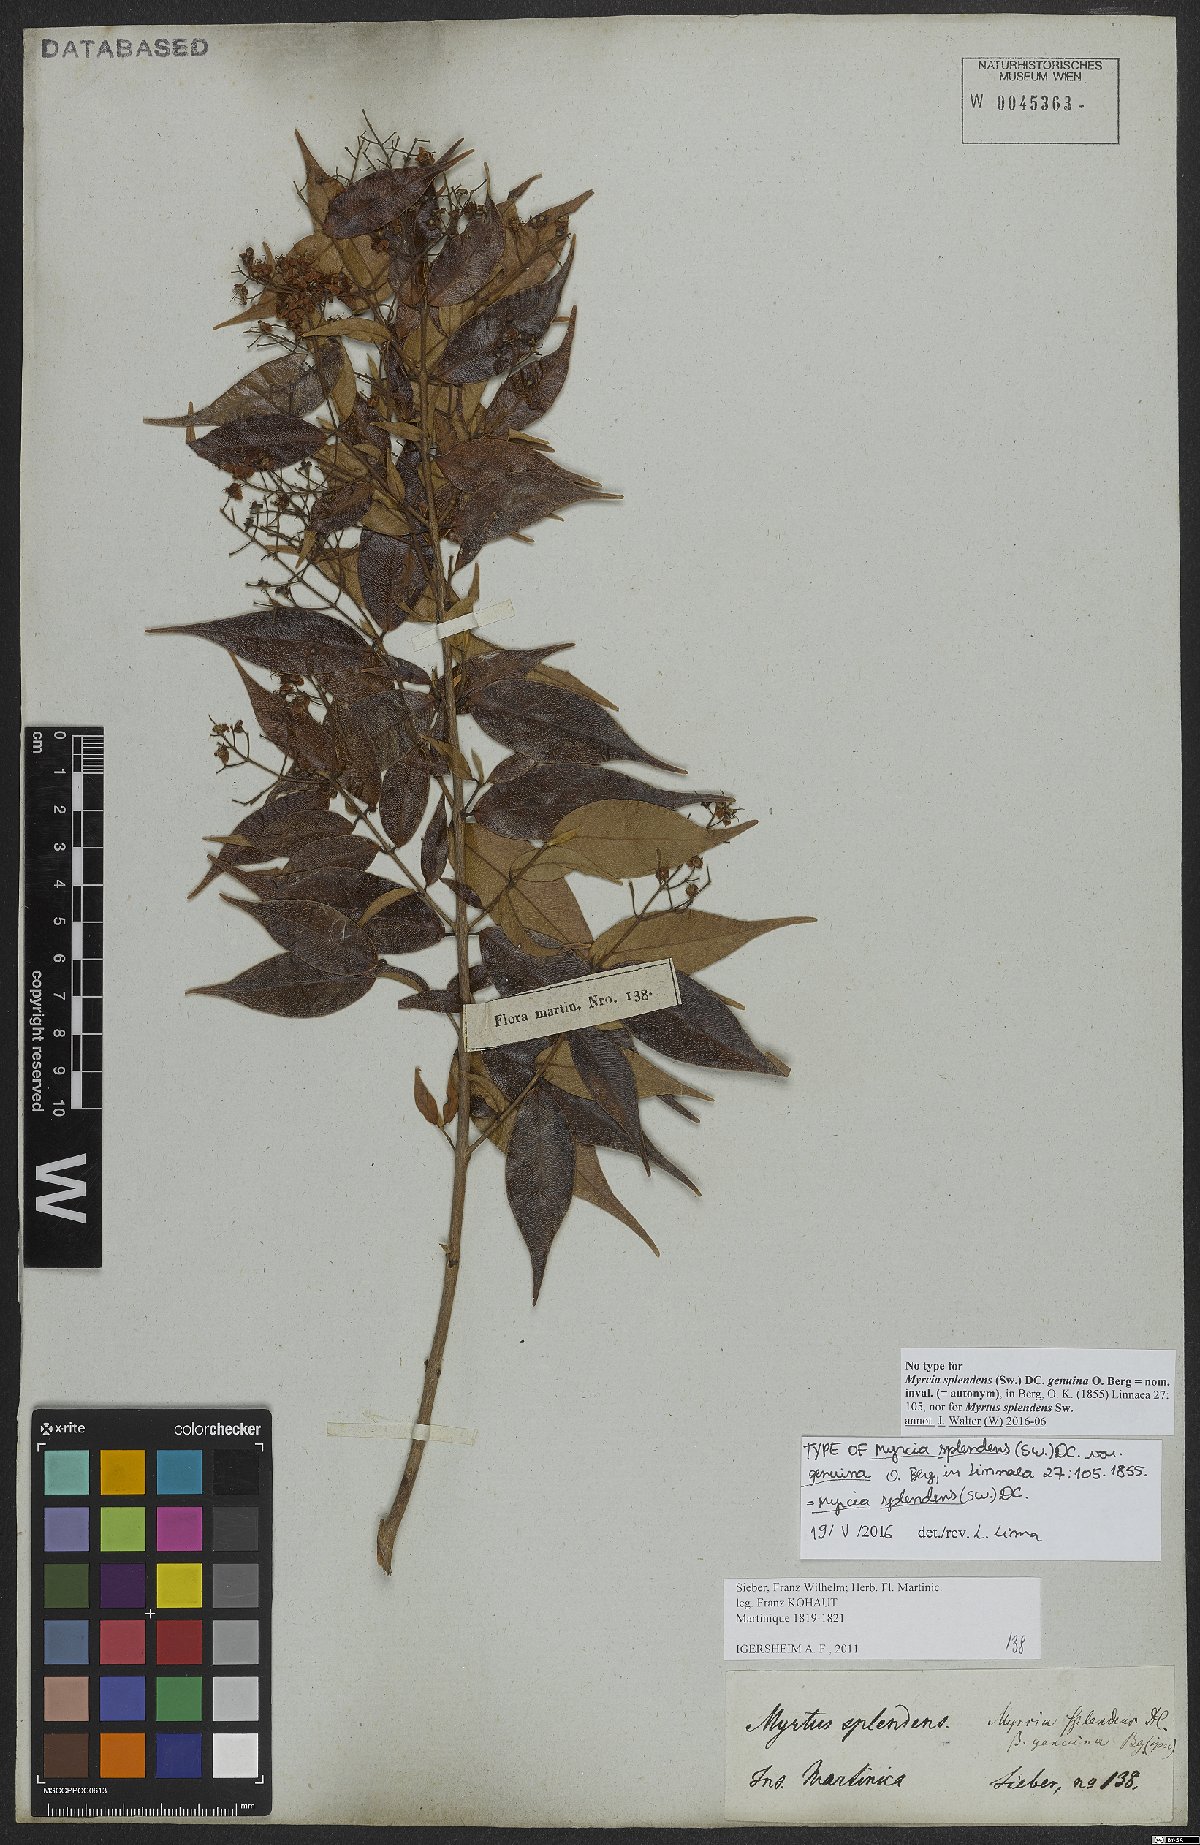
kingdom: Plantae
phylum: Tracheophyta
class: Magnoliopsida
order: Myrtales
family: Myrtaceae
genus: Myrcia
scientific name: Myrcia splendens
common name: Surinam cherry
